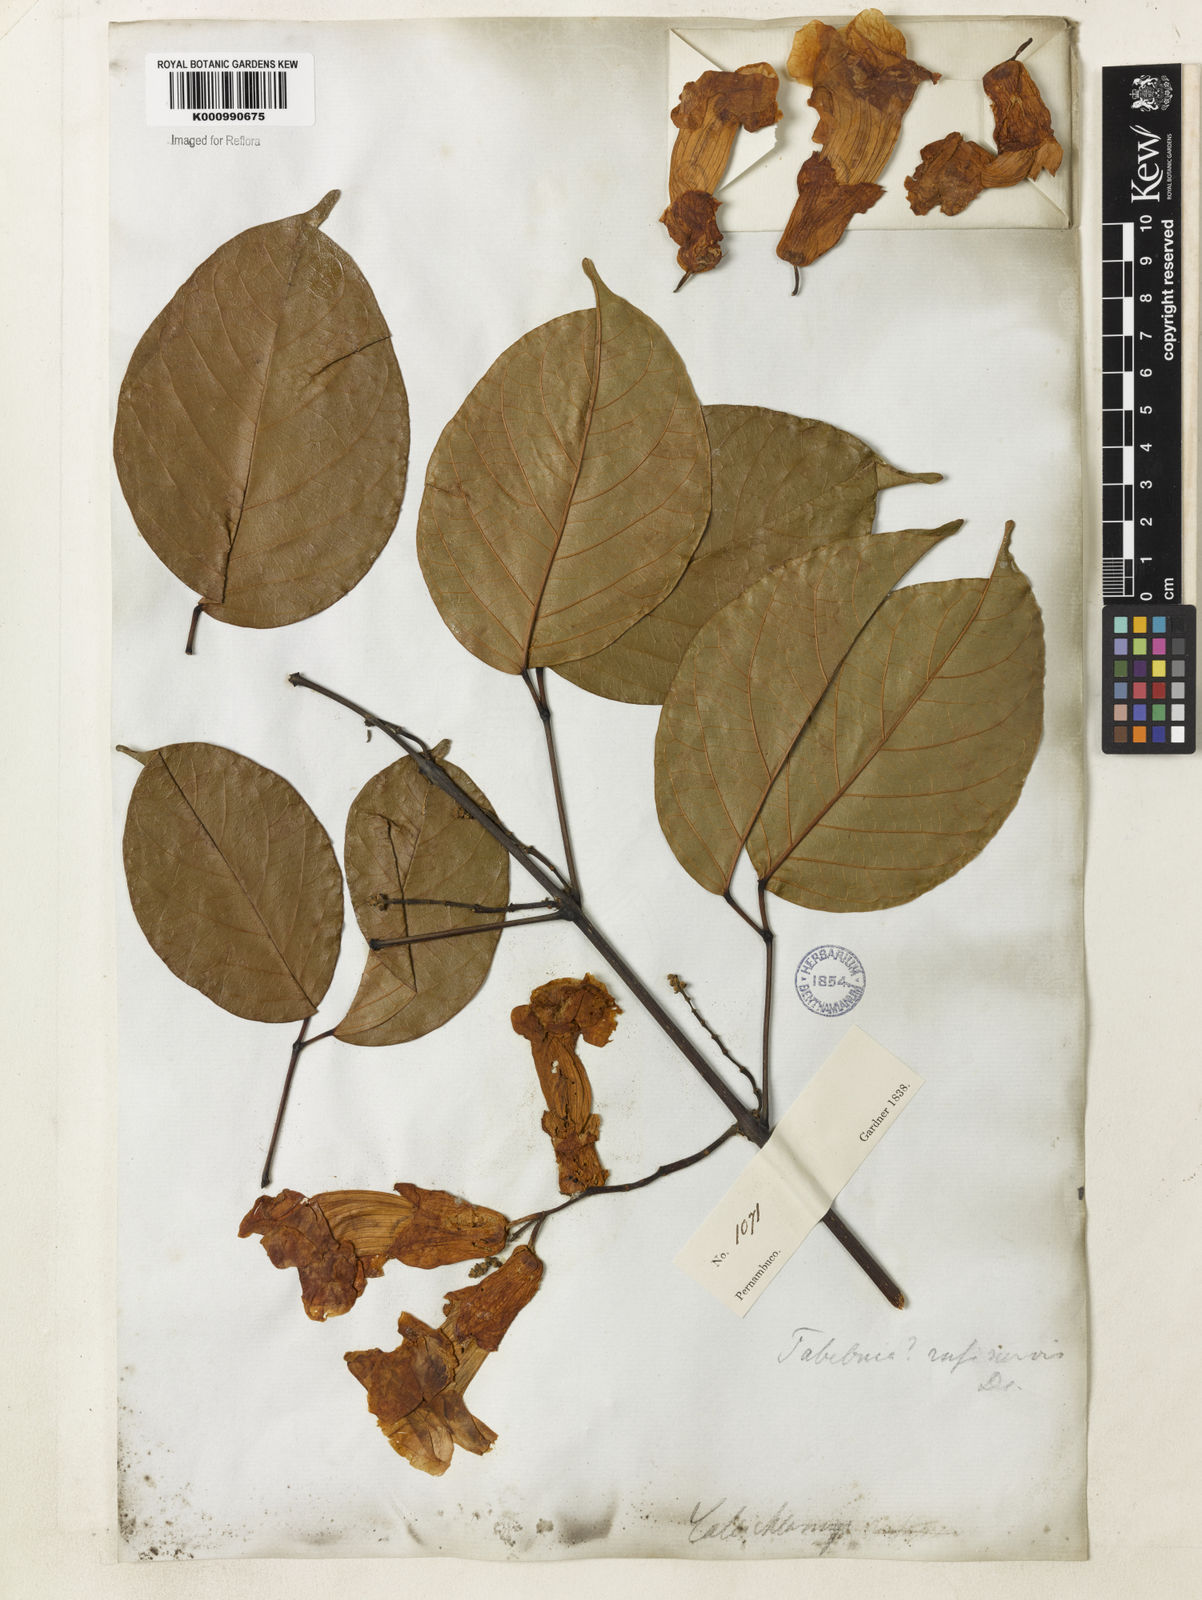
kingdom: Plantae
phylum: Tracheophyta
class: Magnoliopsida
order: Lamiales
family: Bignoniaceae
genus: Callichlamys
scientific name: Callichlamys latifolia
